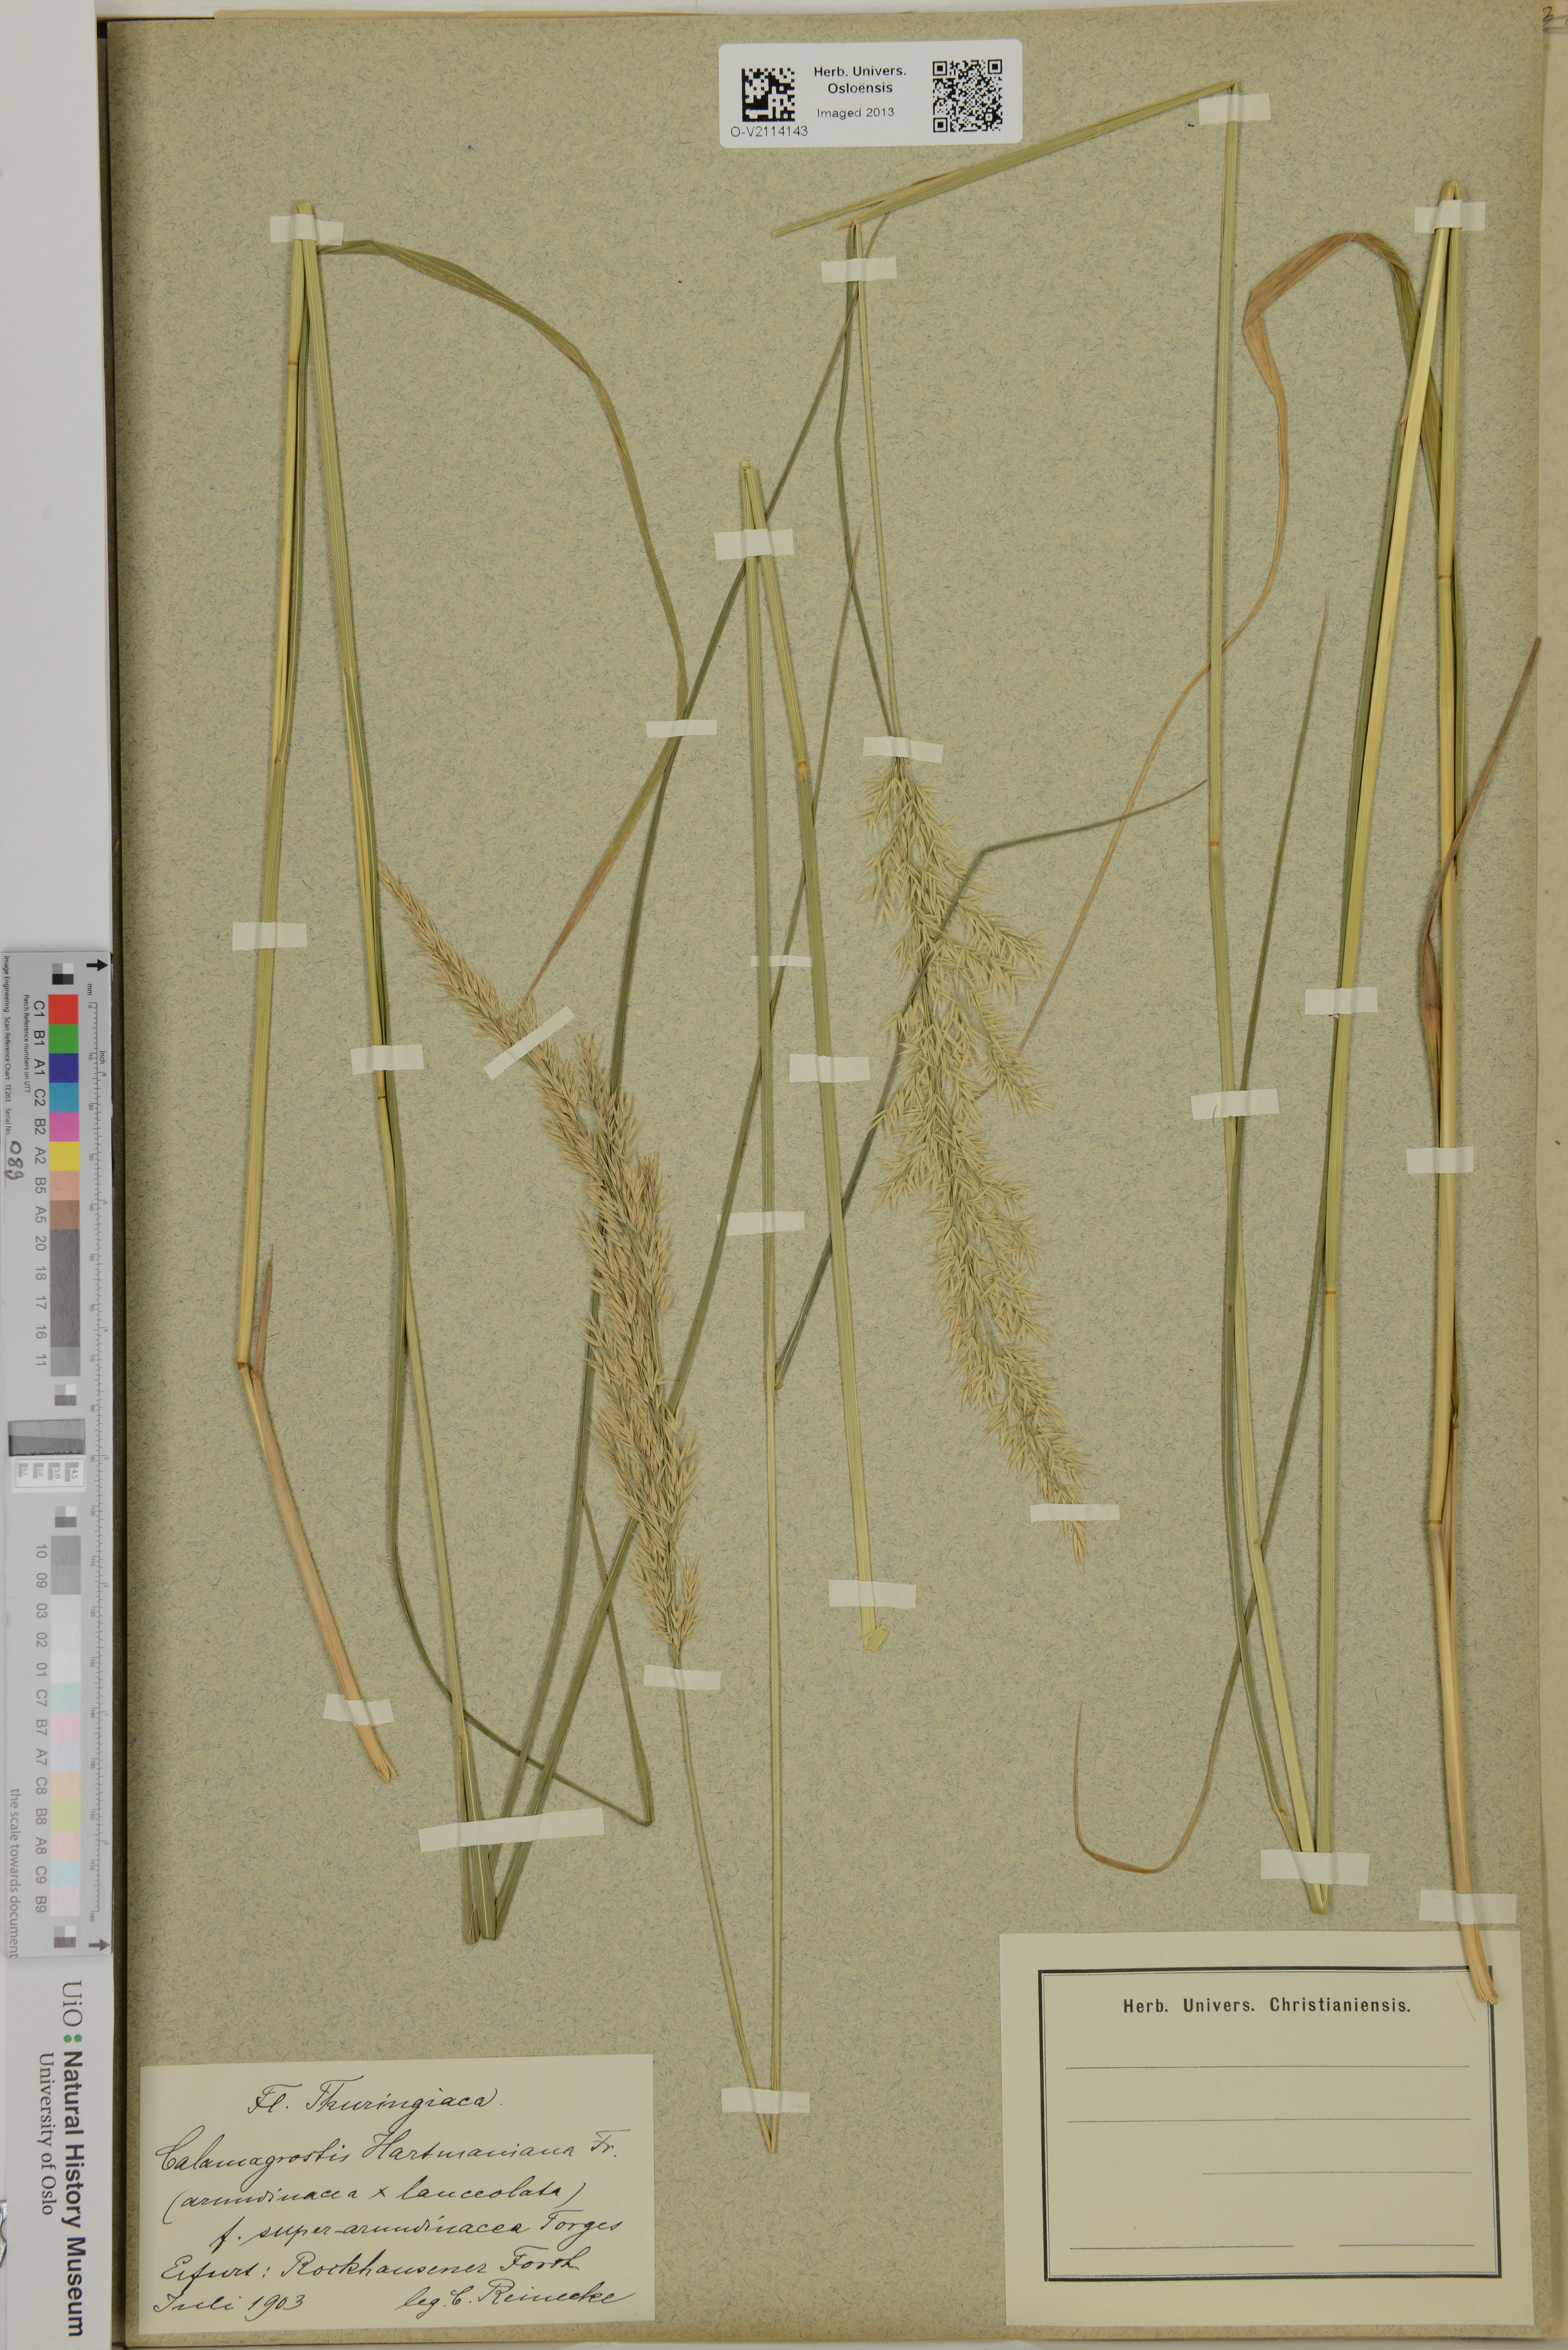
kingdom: Plantae
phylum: Tracheophyta
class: Liliopsida
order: Poales
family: Poaceae
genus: Calamagrostis
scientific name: Calamagrostis arundinacea
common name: Metskastik
